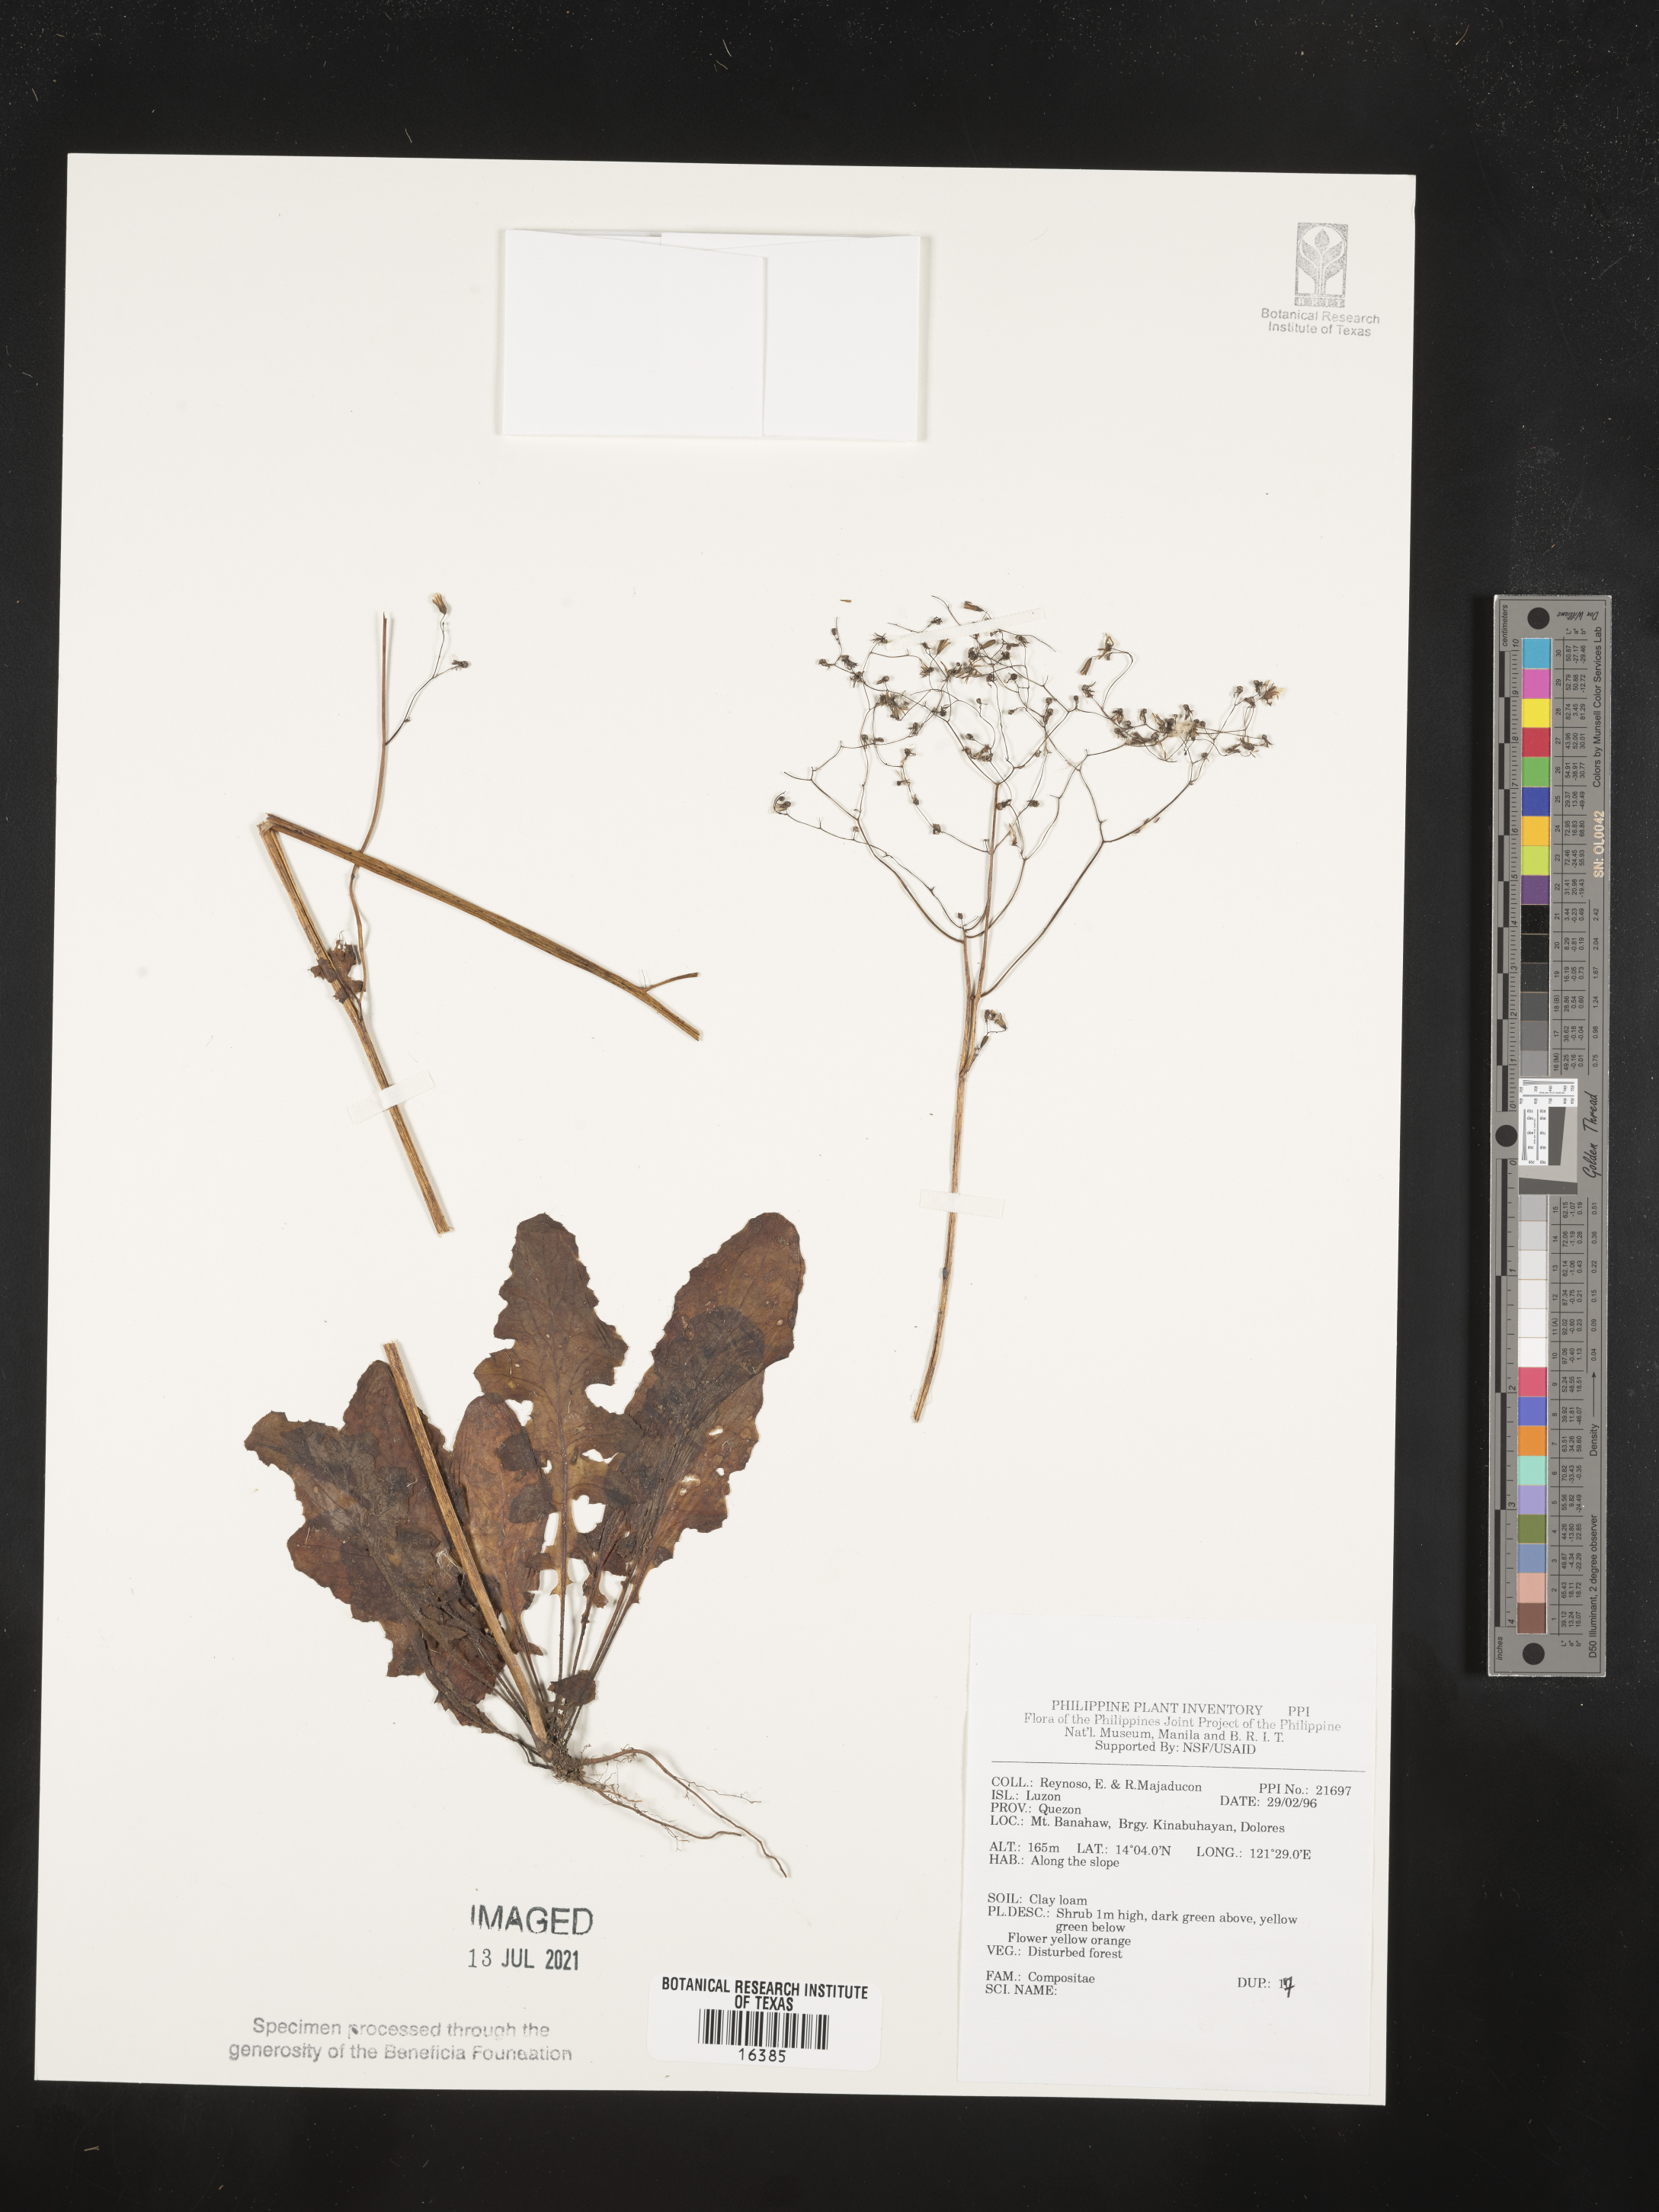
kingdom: Plantae
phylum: Tracheophyta
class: Magnoliopsida
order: Asterales
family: Asteraceae
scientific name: Asteraceae
